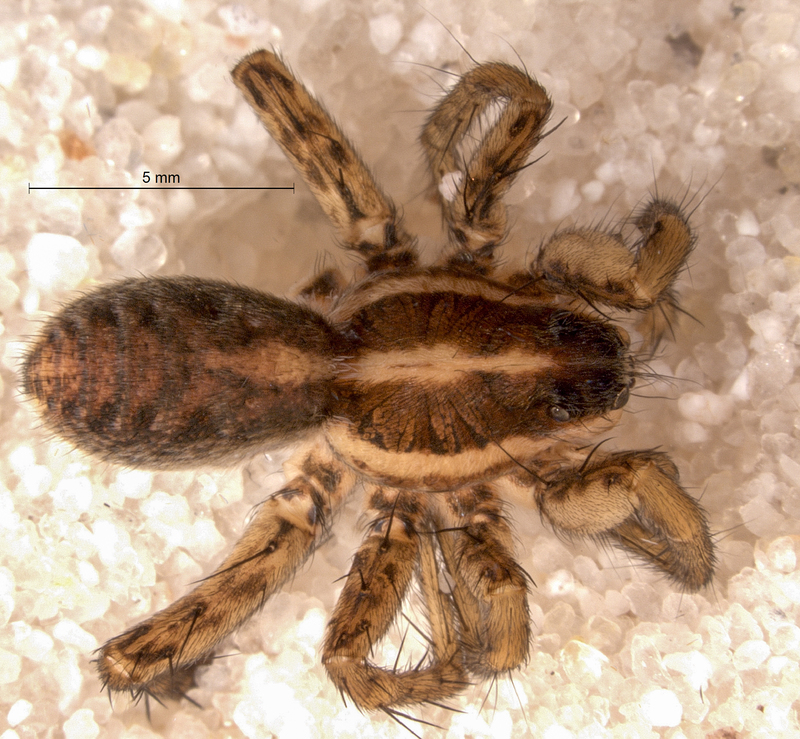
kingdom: Animalia
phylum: Arthropoda
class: Arachnida
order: Araneae
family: Lycosidae
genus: Pardosa
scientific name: Pardosa palustris
